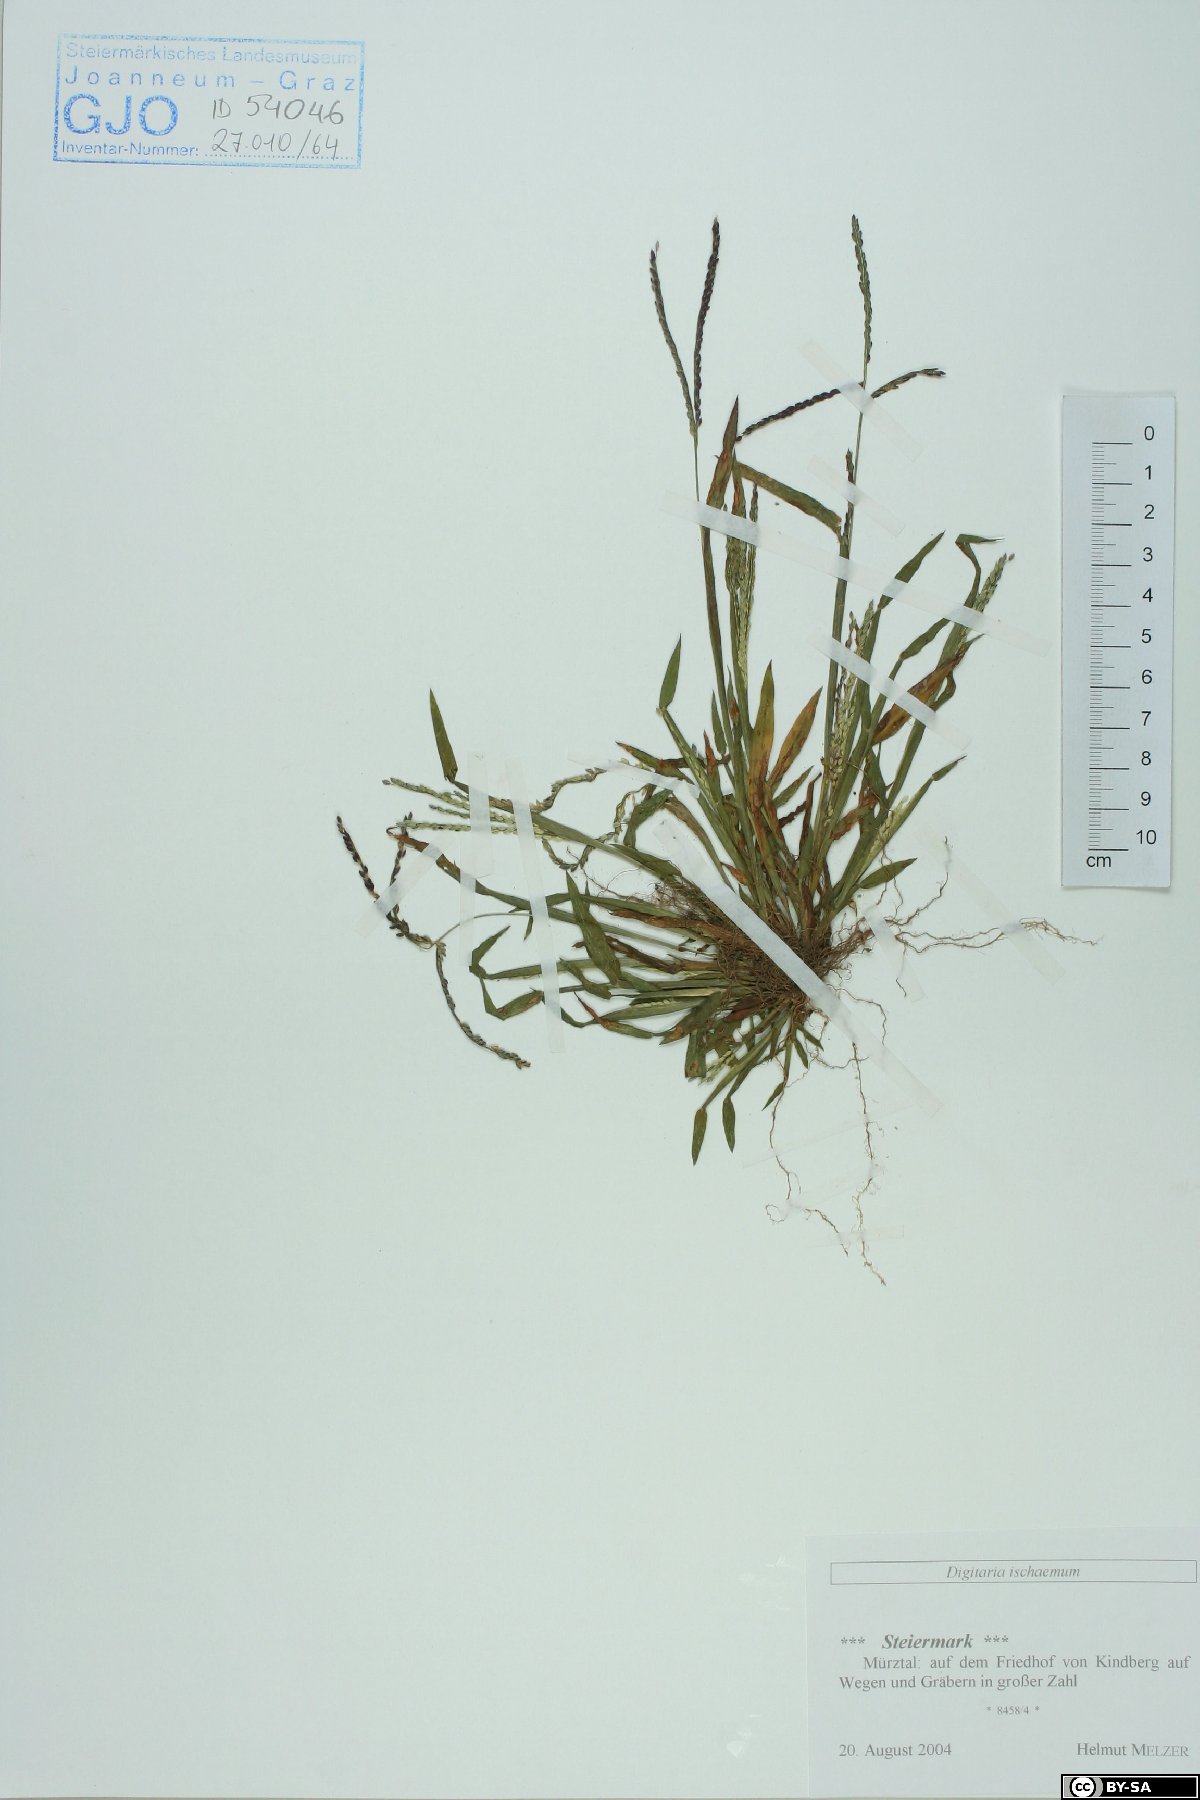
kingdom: Plantae
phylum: Tracheophyta
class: Liliopsida
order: Poales
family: Poaceae
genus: Digitaria
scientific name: Digitaria ischaemum
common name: Smooth crabgrass
